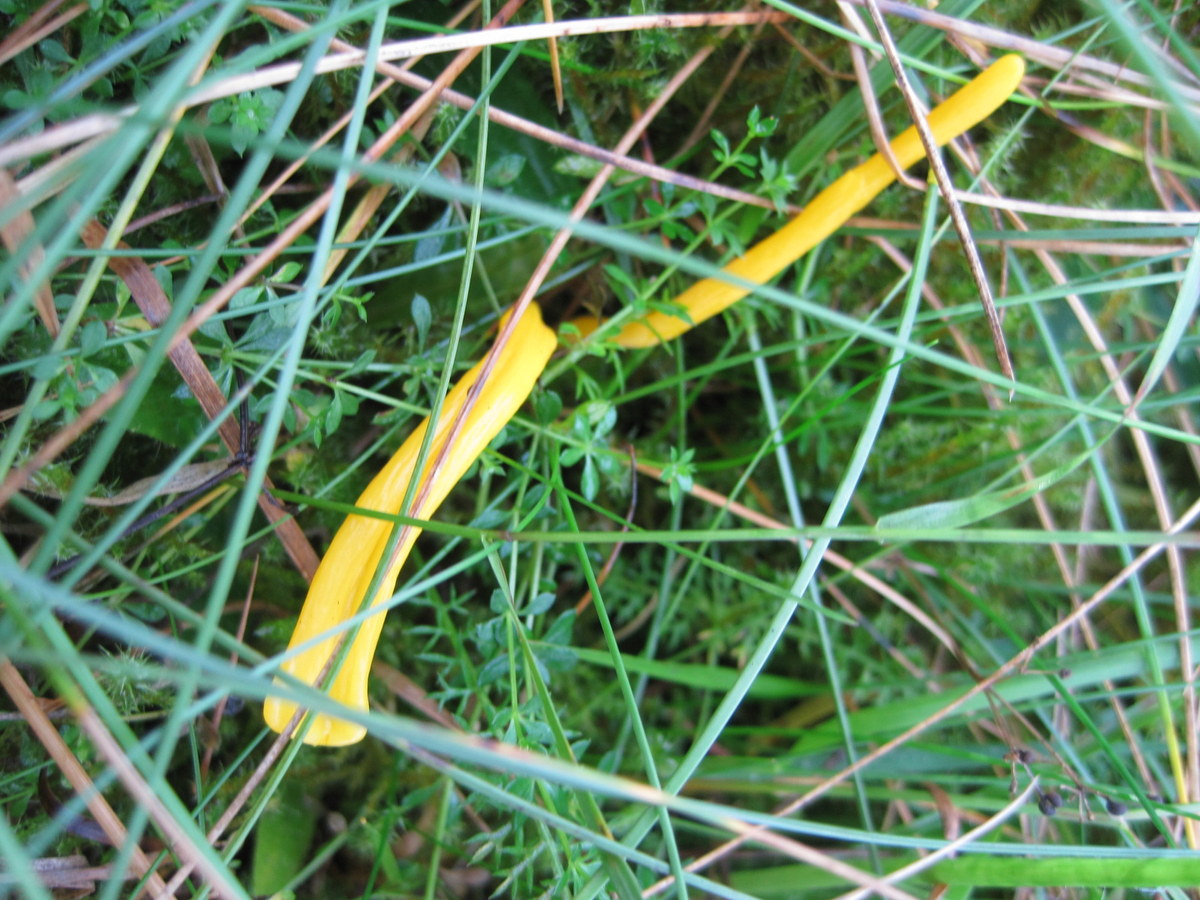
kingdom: Fungi
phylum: Basidiomycota
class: Agaricomycetes
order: Agaricales
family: Clavariaceae
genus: Clavulinopsis
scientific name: Clavulinopsis helvola
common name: orangegul køllesvamp
